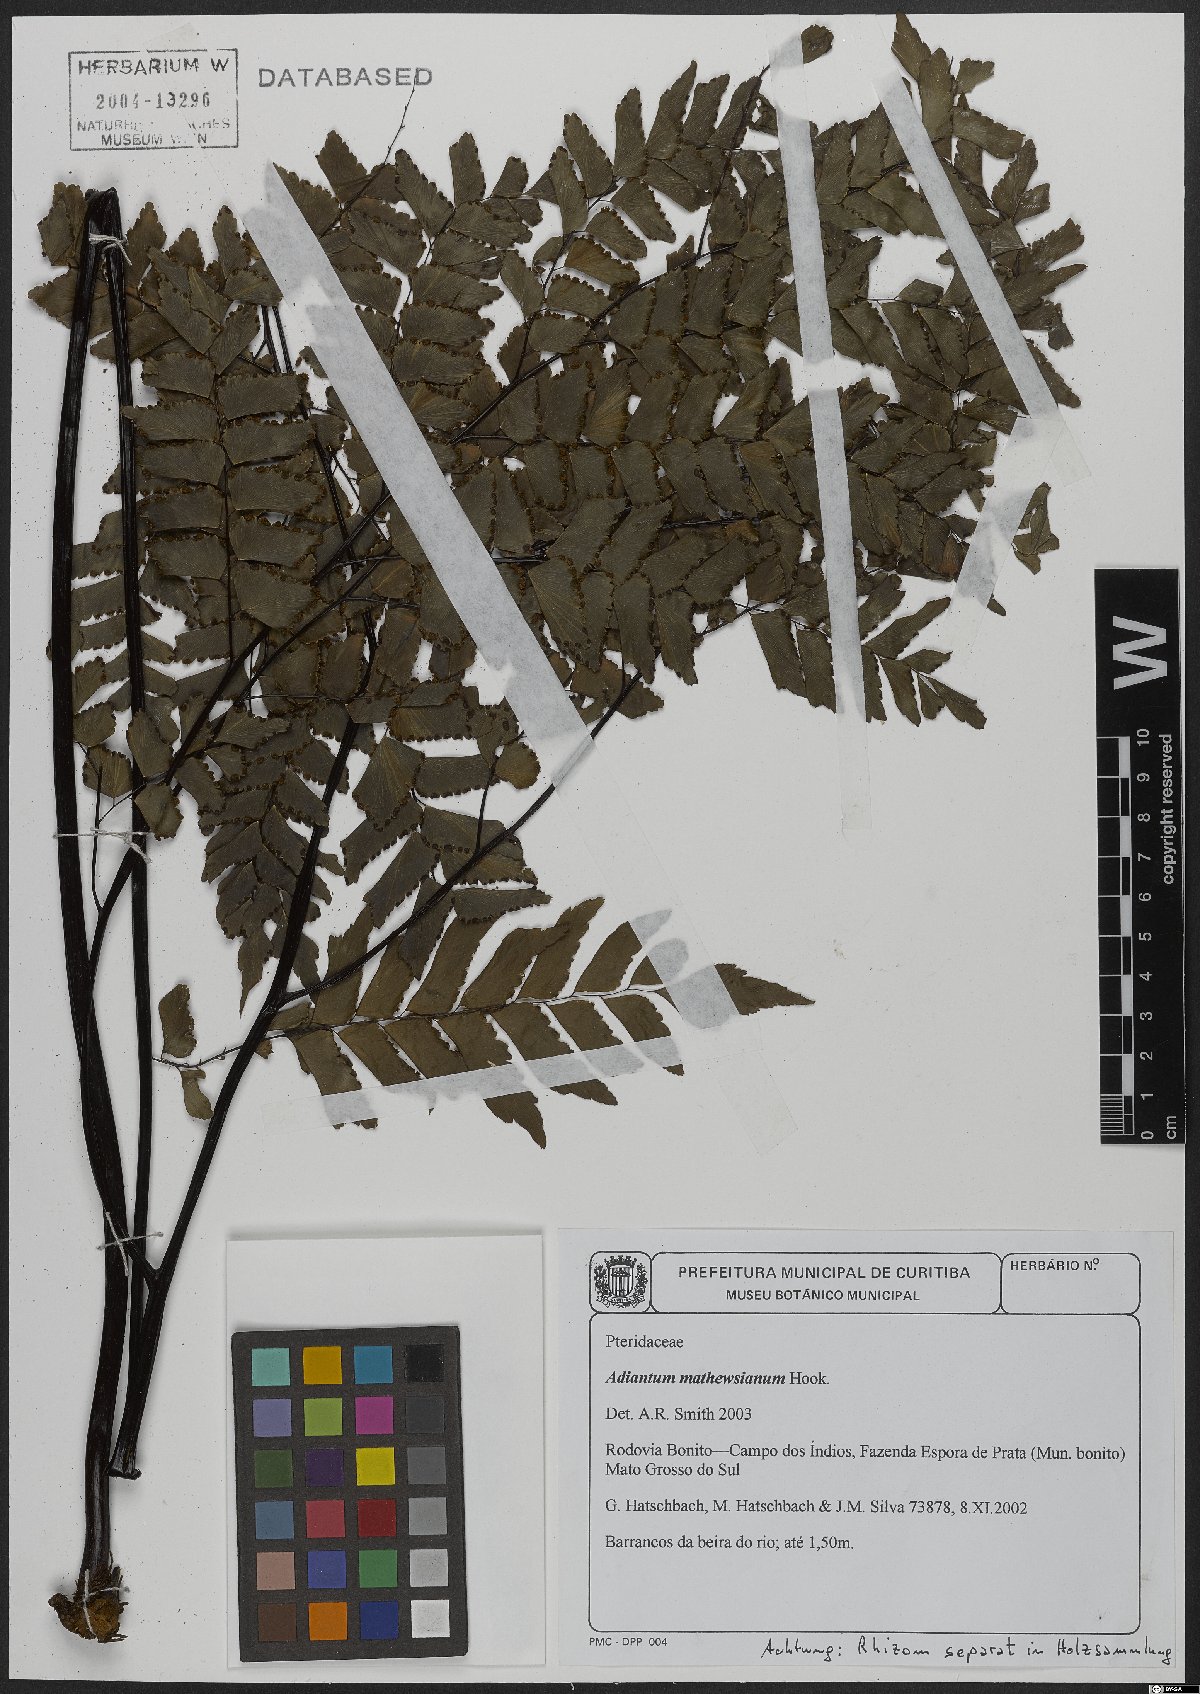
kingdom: Plantae
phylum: Tracheophyta
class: Polypodiopsida
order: Polypodiales
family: Pteridaceae
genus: Adiantum
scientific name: Adiantum mathewsianum
